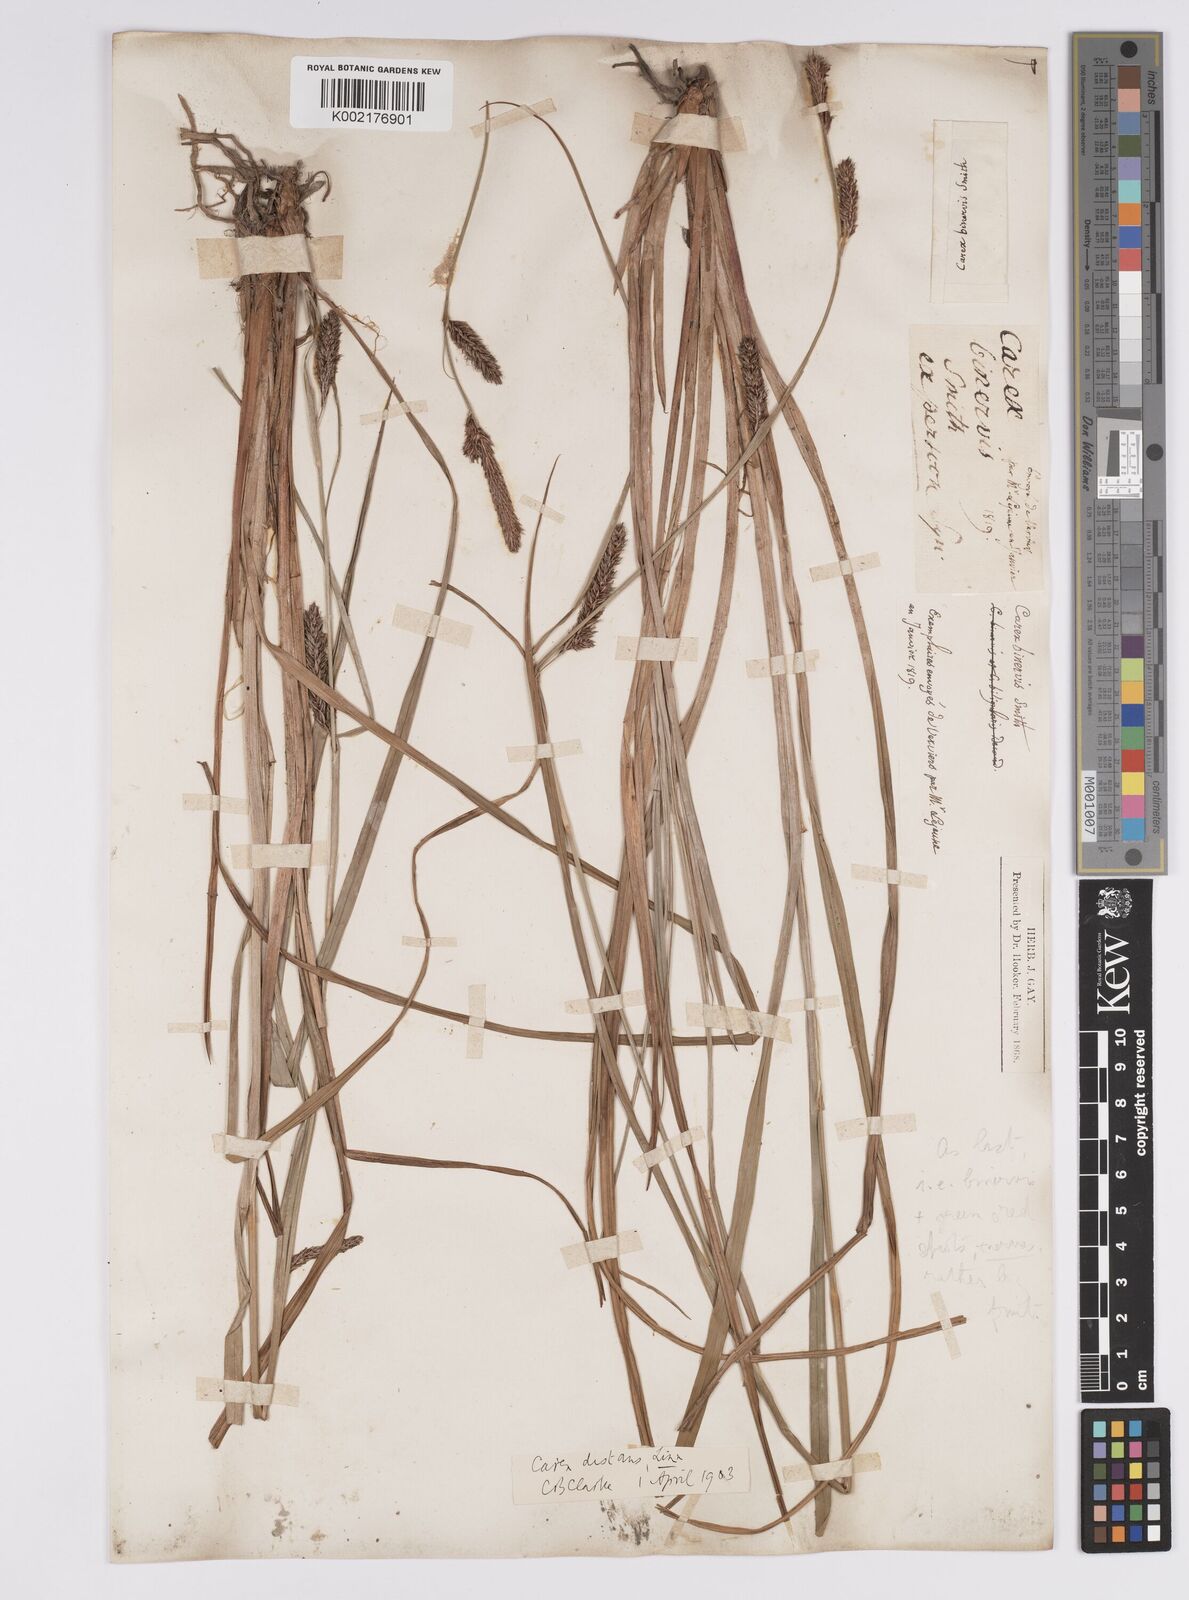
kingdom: Plantae
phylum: Tracheophyta
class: Liliopsida
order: Poales
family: Cyperaceae
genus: Carex
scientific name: Carex binervis
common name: Green-ribbed sedge
